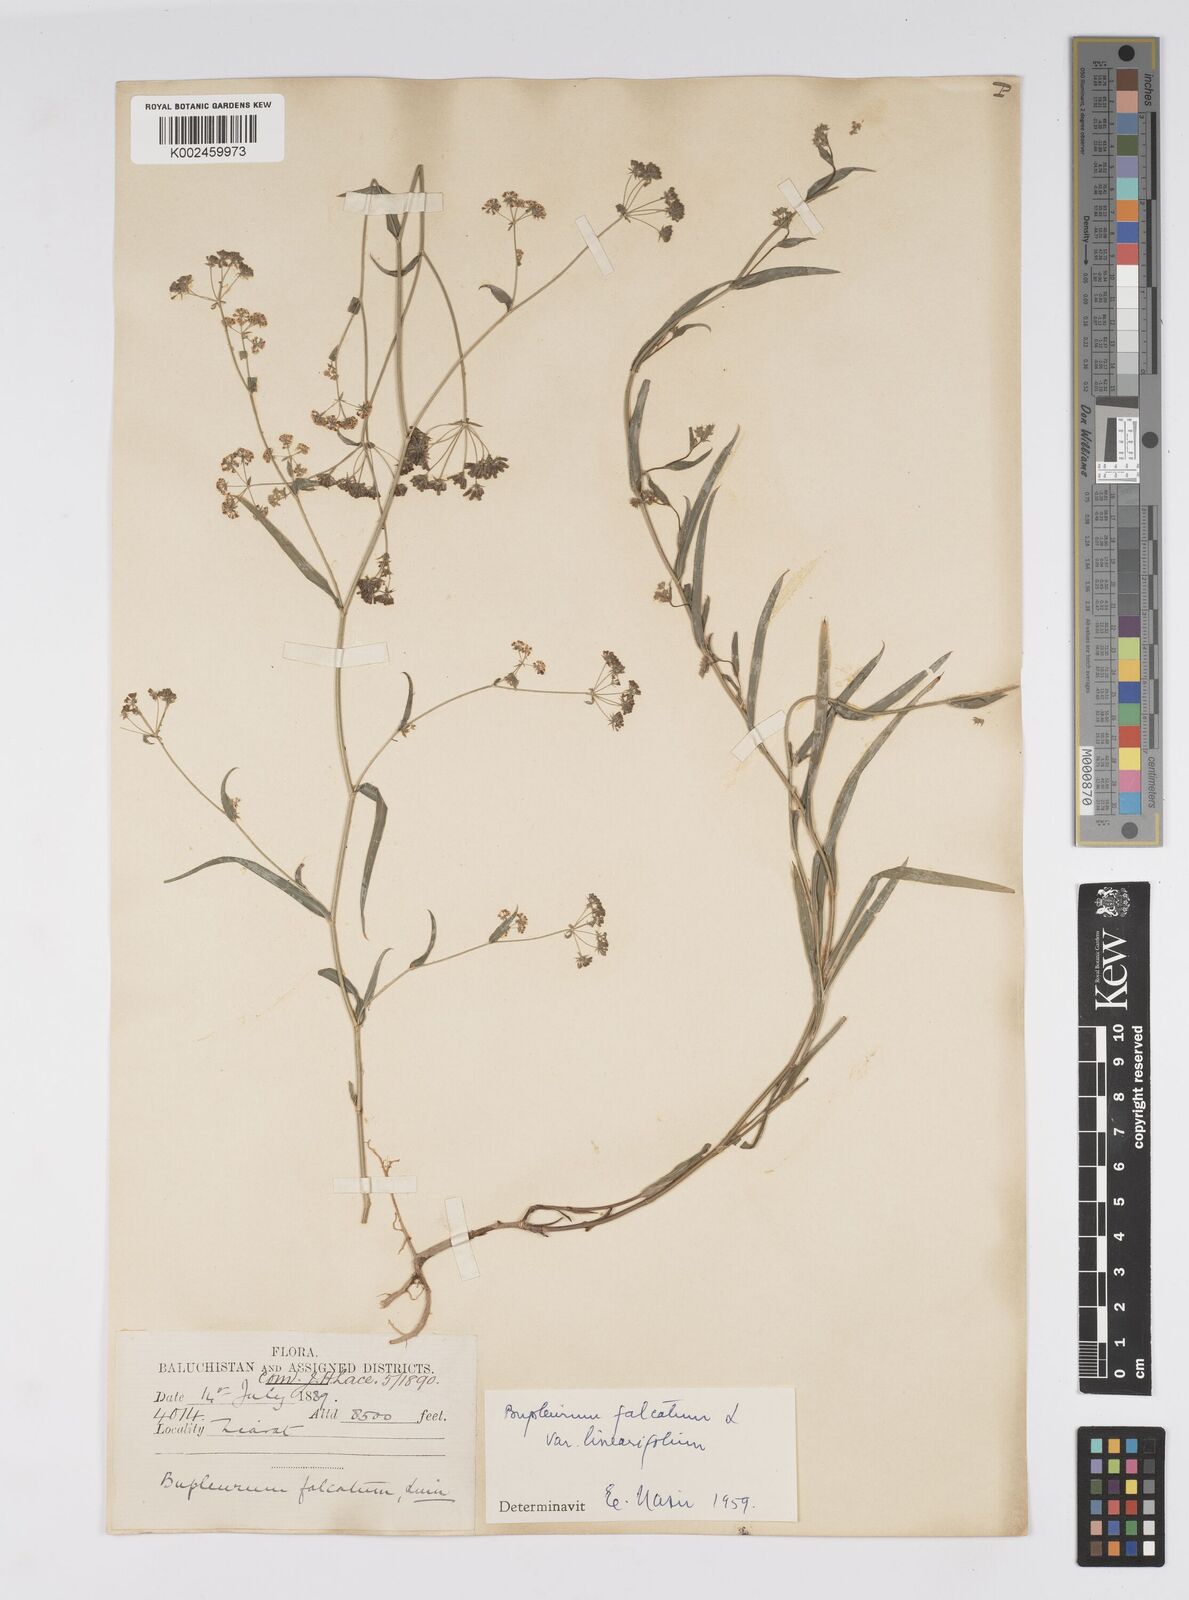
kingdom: Plantae
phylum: Tracheophyta
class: Magnoliopsida
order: Apiales
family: Apiaceae
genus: Bupleurum
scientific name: Bupleurum falcatum
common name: Sickle-leaved hare's-ear
